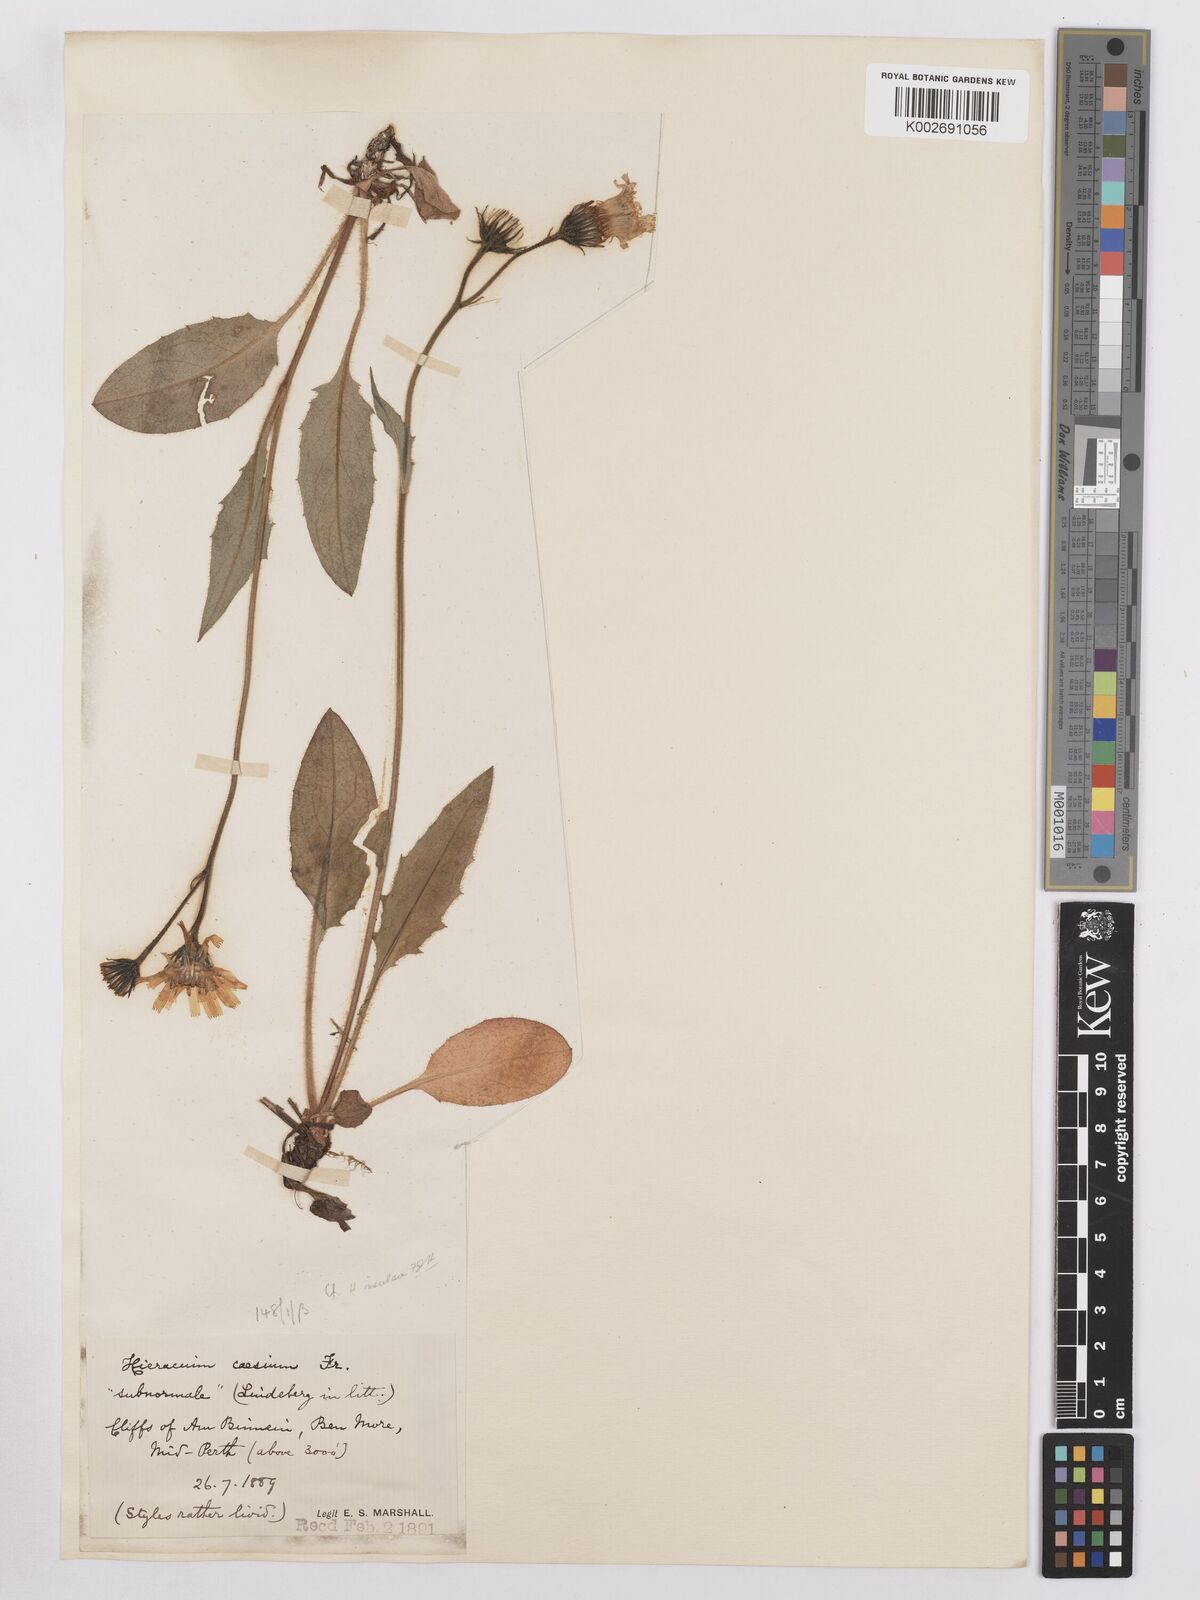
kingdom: Plantae
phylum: Tracheophyta
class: Magnoliopsida
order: Asterales
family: Asteraceae
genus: Hieracium
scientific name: Hieracium insulare
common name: Ben moore hawkweed
